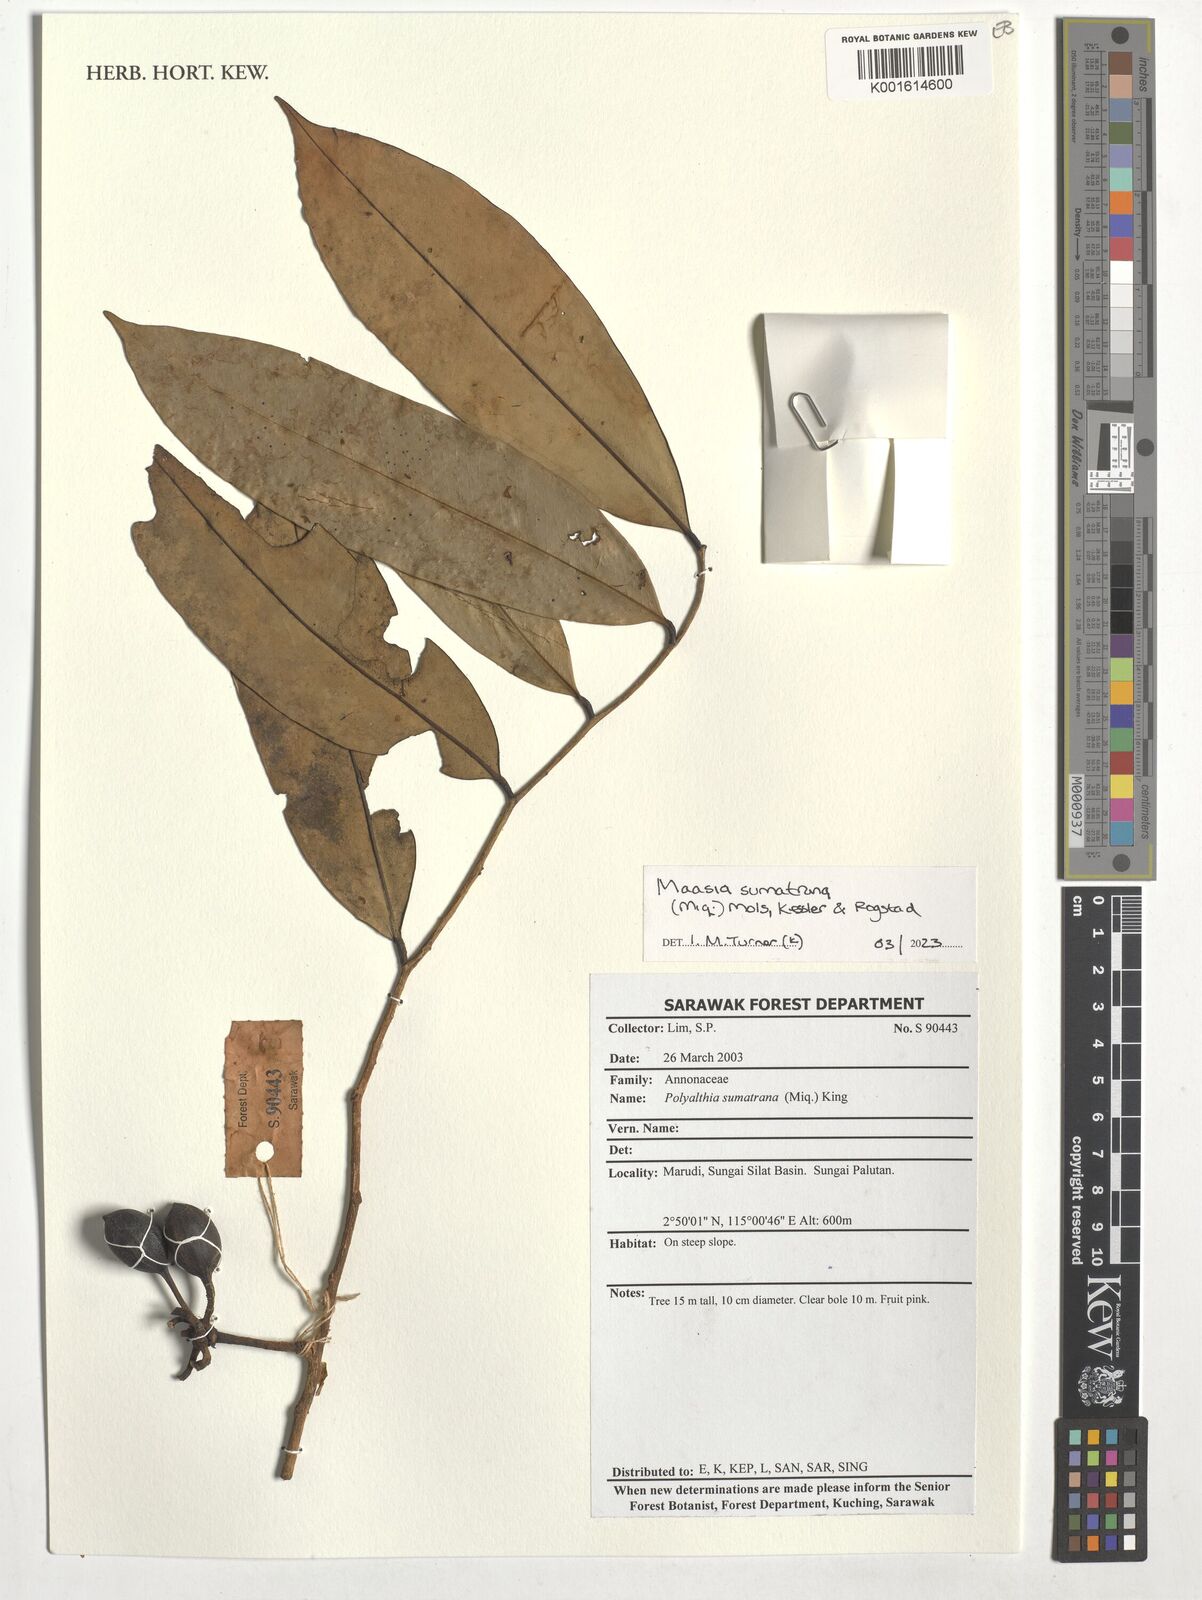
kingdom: Plantae
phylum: Tracheophyta
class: Magnoliopsida
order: Magnoliales
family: Annonaceae
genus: Maasia
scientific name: Maasia sumatrana
